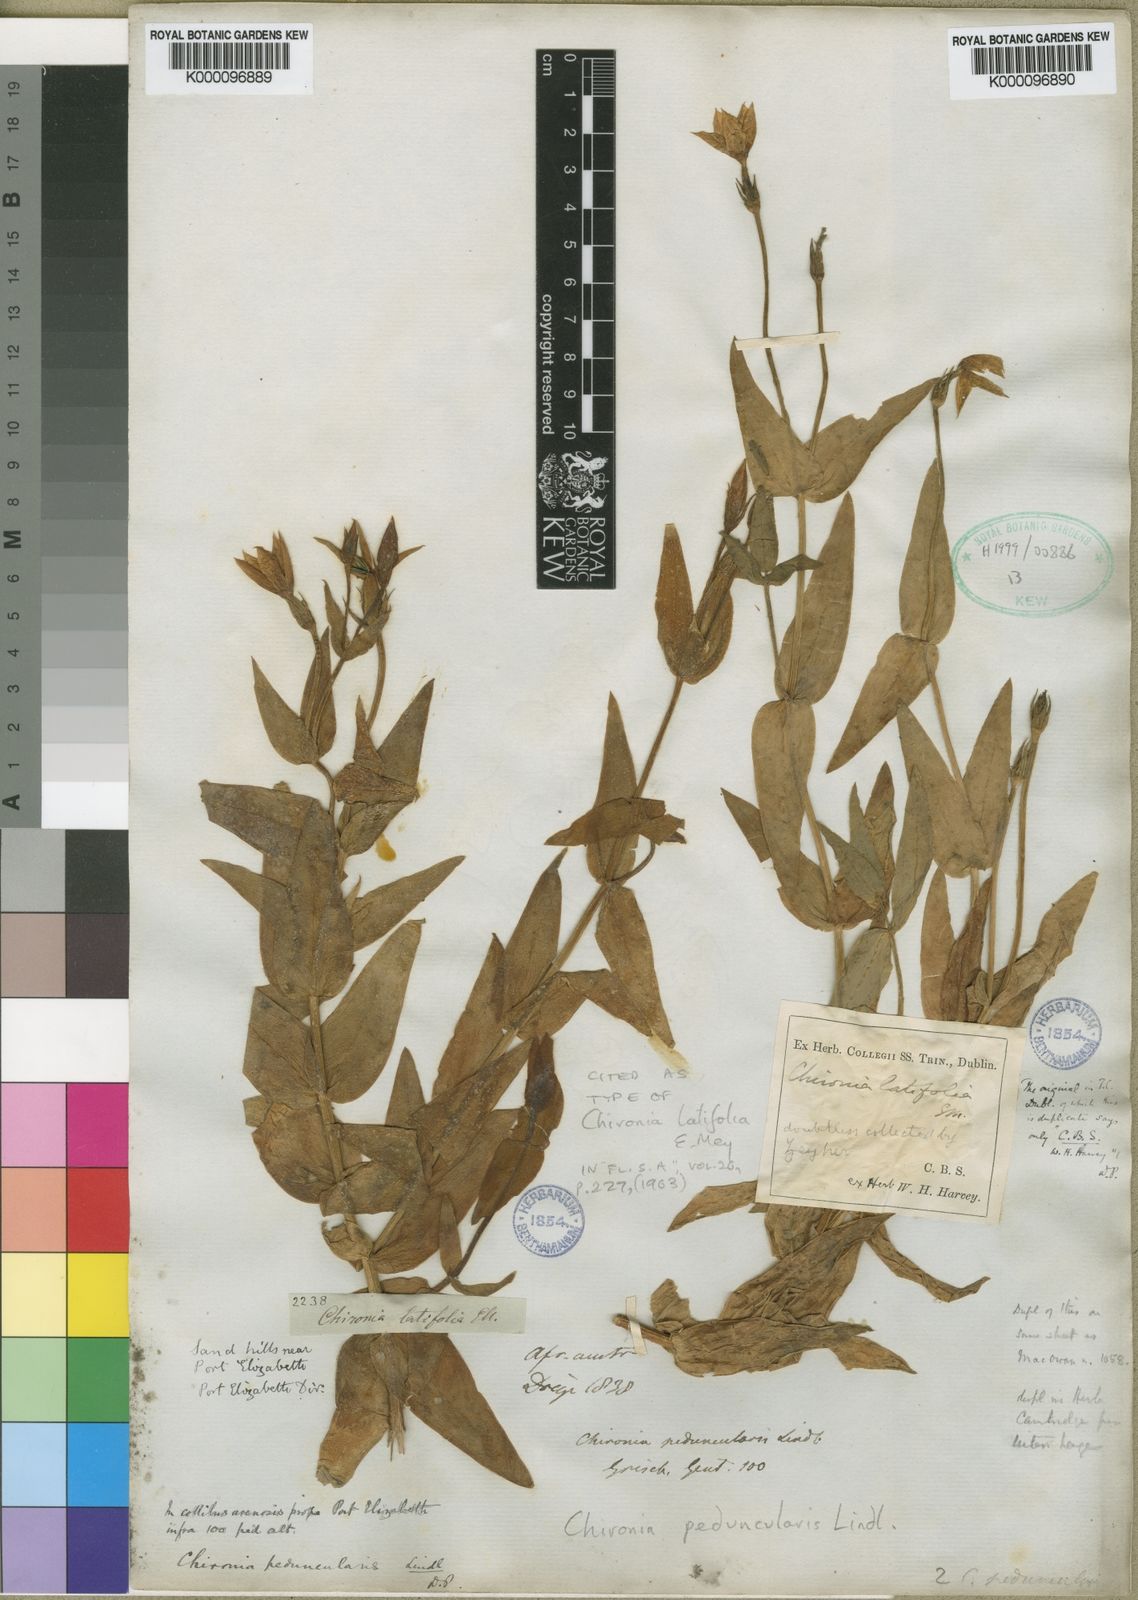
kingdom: Plantae
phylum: Tracheophyta
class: Magnoliopsida
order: Gentianales
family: Gentianaceae
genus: Chironia
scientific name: Chironia peduncularis
